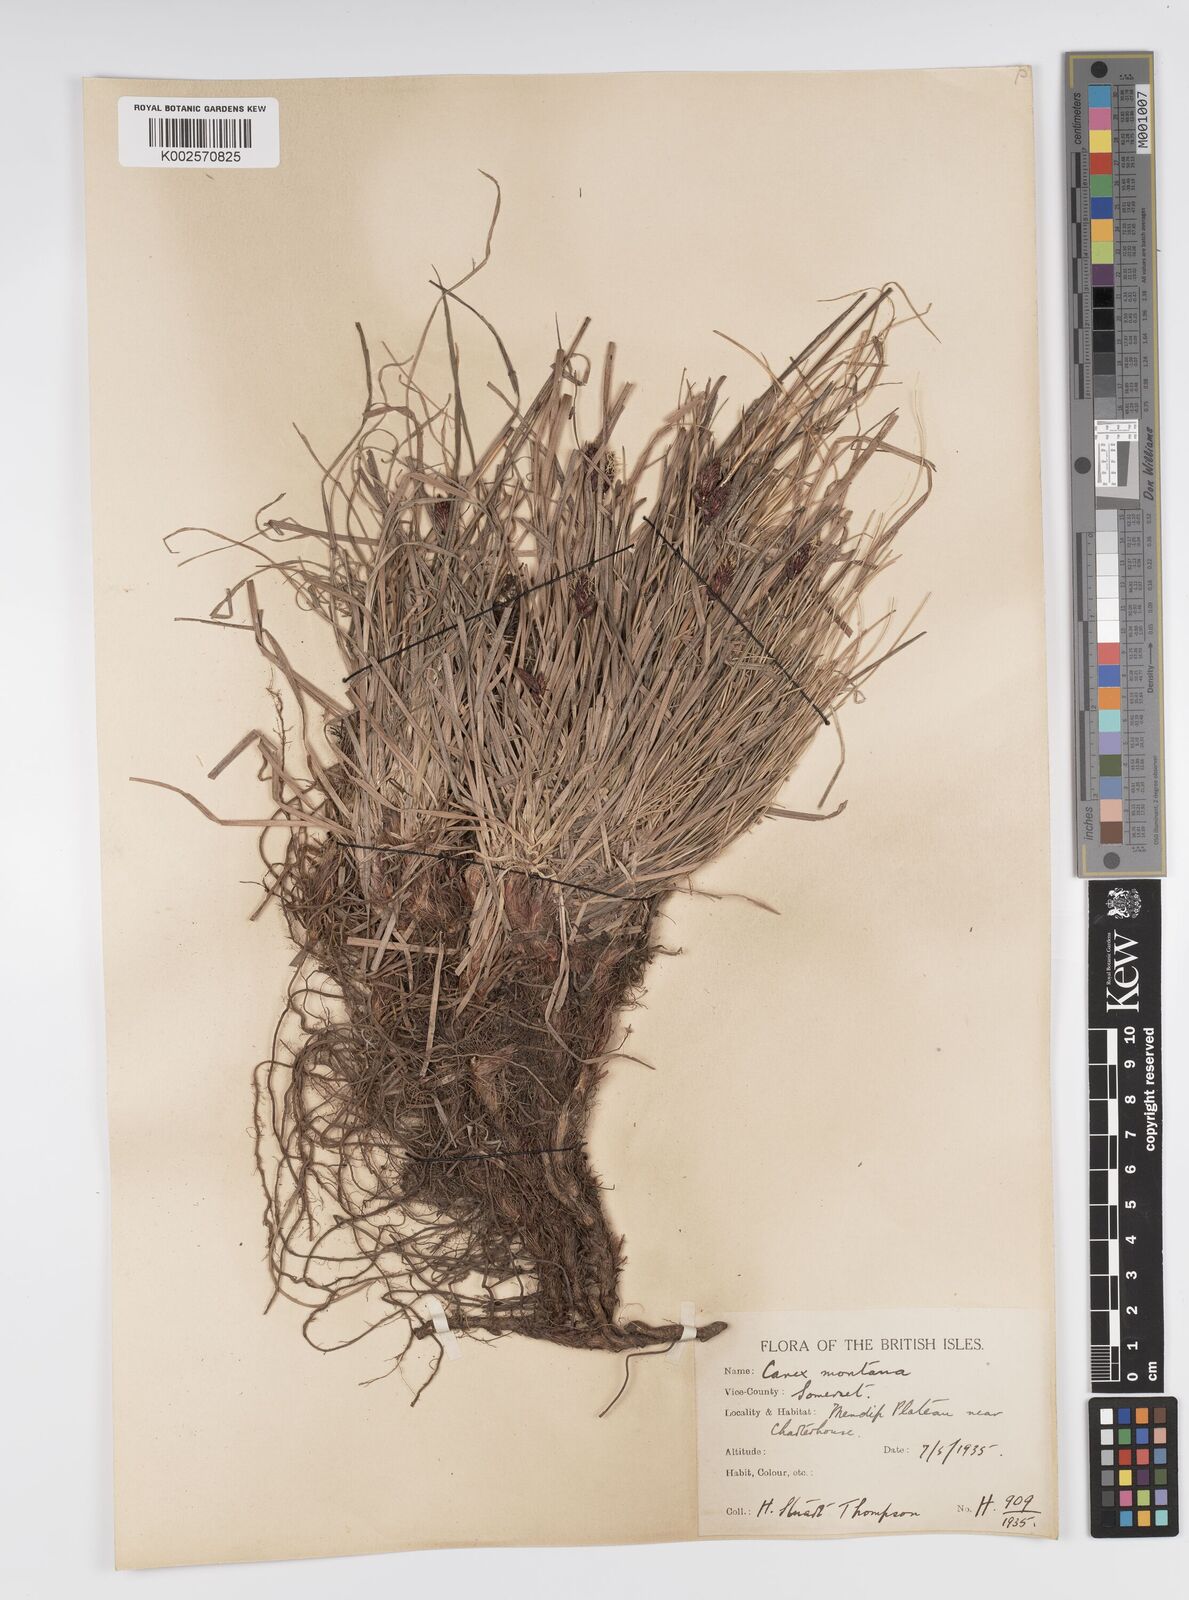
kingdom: Plantae
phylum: Tracheophyta
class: Liliopsida
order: Poales
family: Cyperaceae
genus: Carex
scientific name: Carex montana
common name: Soft-leaved sedge
